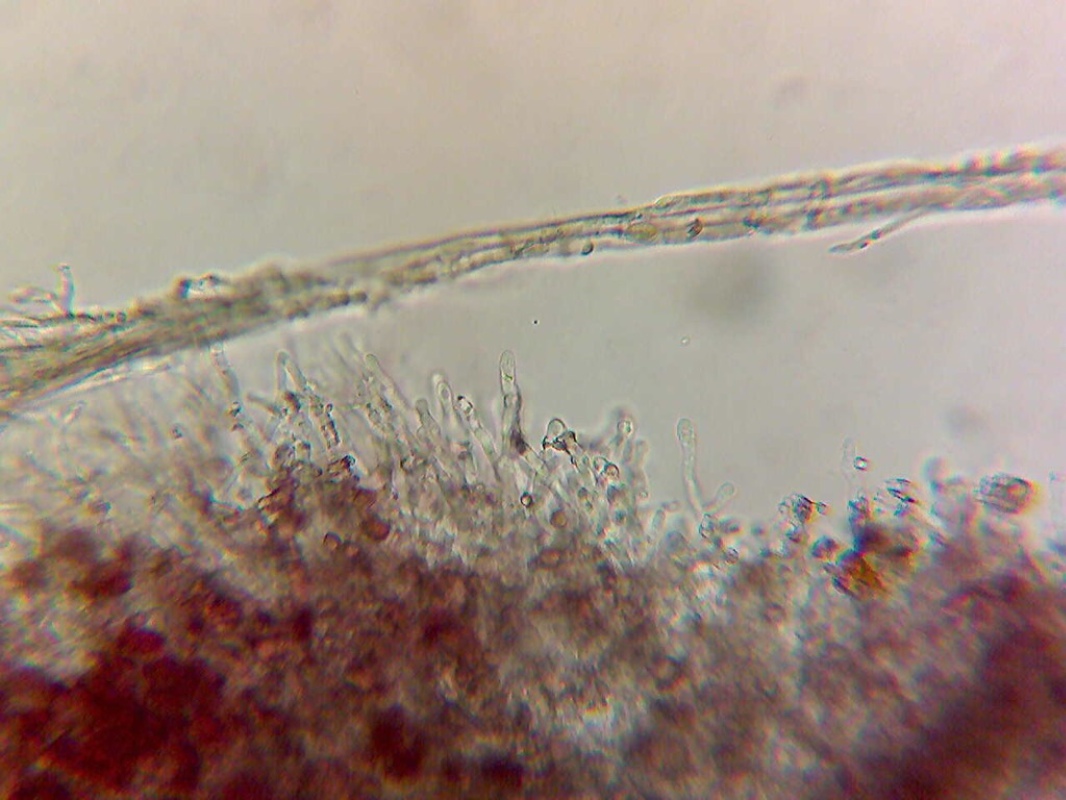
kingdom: Fungi
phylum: Basidiomycota
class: Agaricomycetes
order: Polyporales
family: Irpicaceae
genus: Ceriporia
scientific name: Ceriporia purpurea
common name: purpur-voksporesvamp
